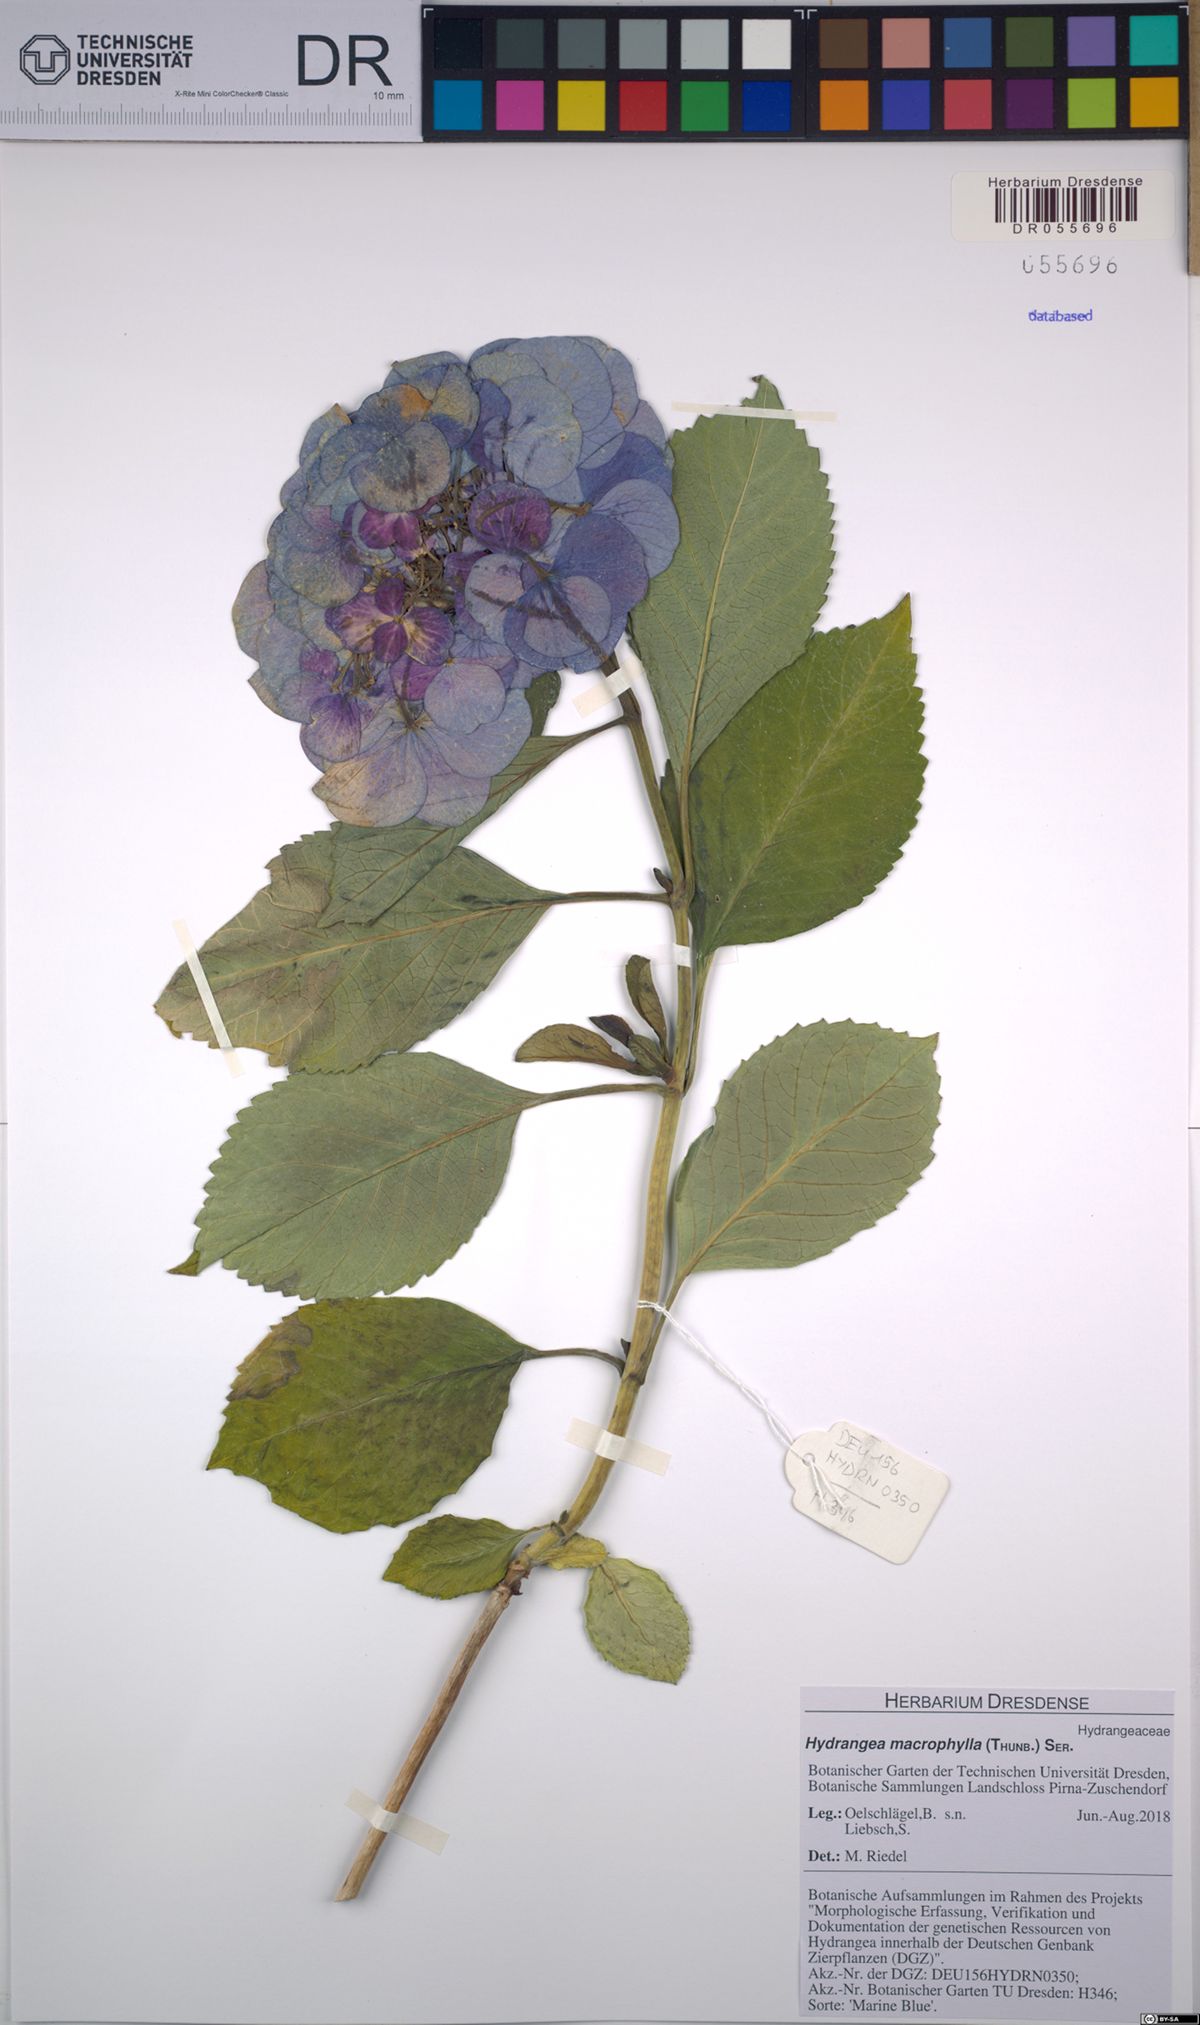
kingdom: Plantae
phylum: Tracheophyta
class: Magnoliopsida
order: Cornales
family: Hydrangeaceae
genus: Hydrangea
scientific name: Hydrangea macrophylla
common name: Hydrangea
